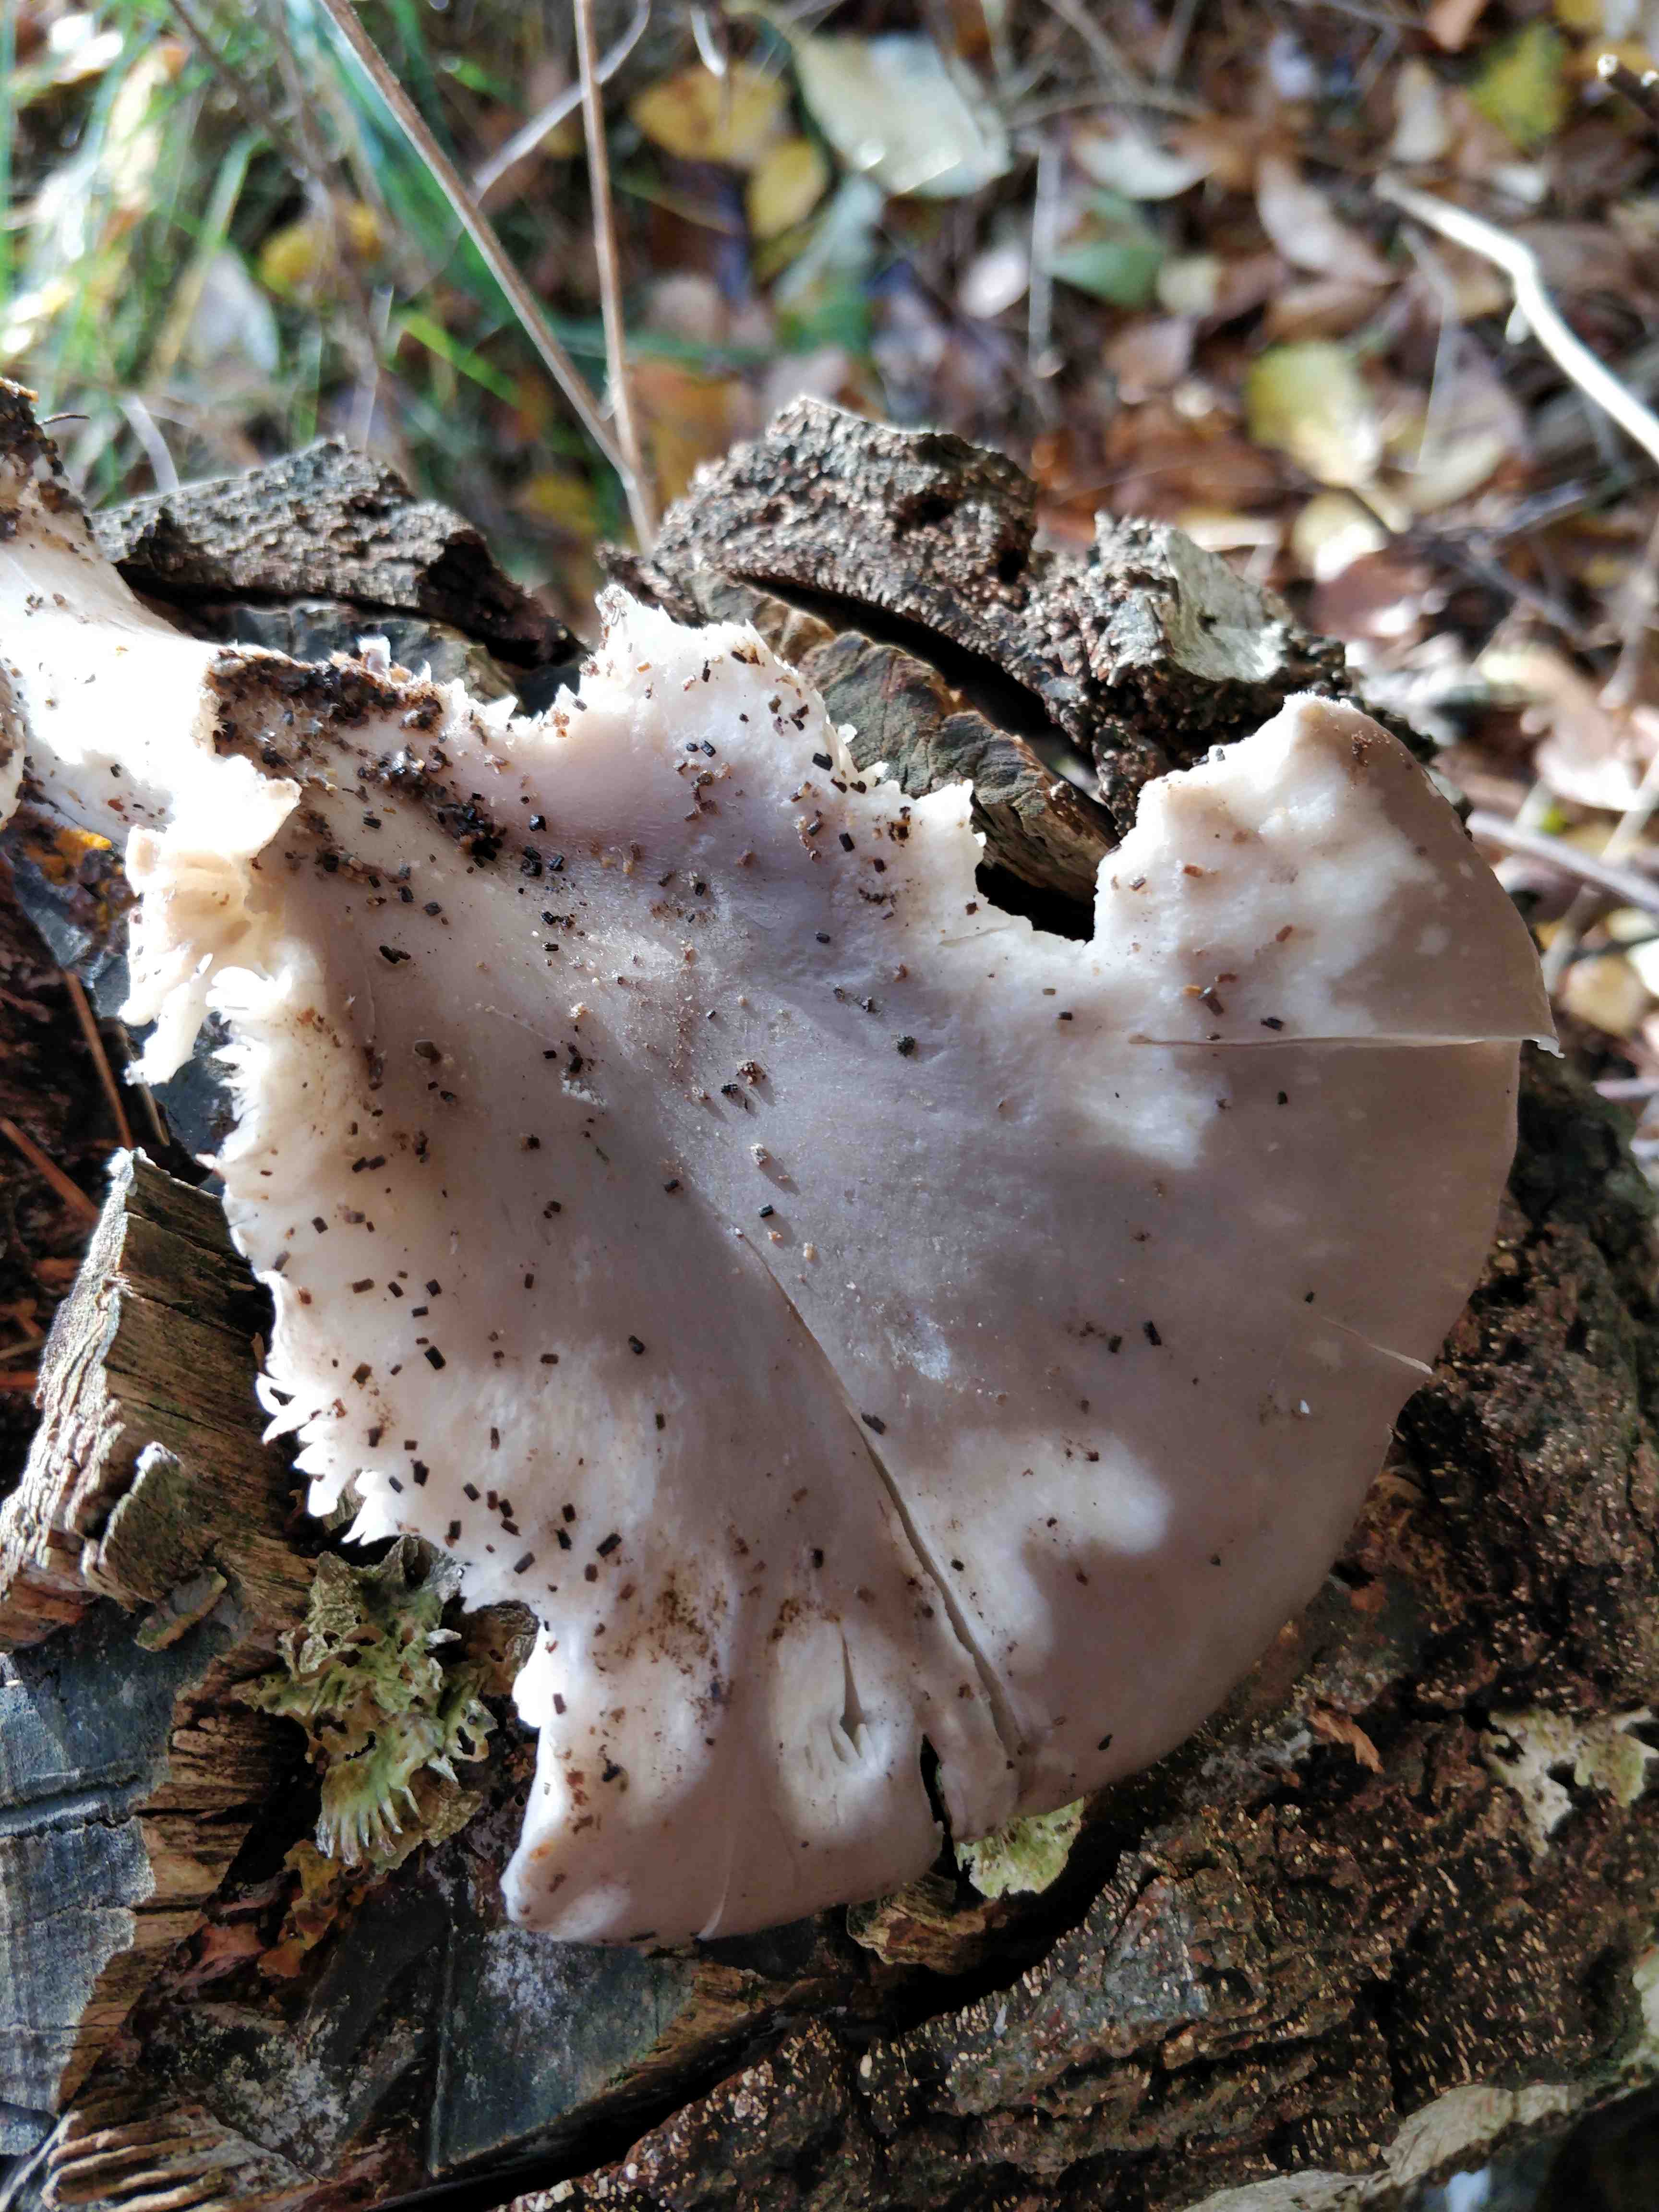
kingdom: Fungi
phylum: Basidiomycota
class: Agaricomycetes
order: Agaricales
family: Pleurotaceae
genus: Pleurotus
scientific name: Pleurotus ostreatus
